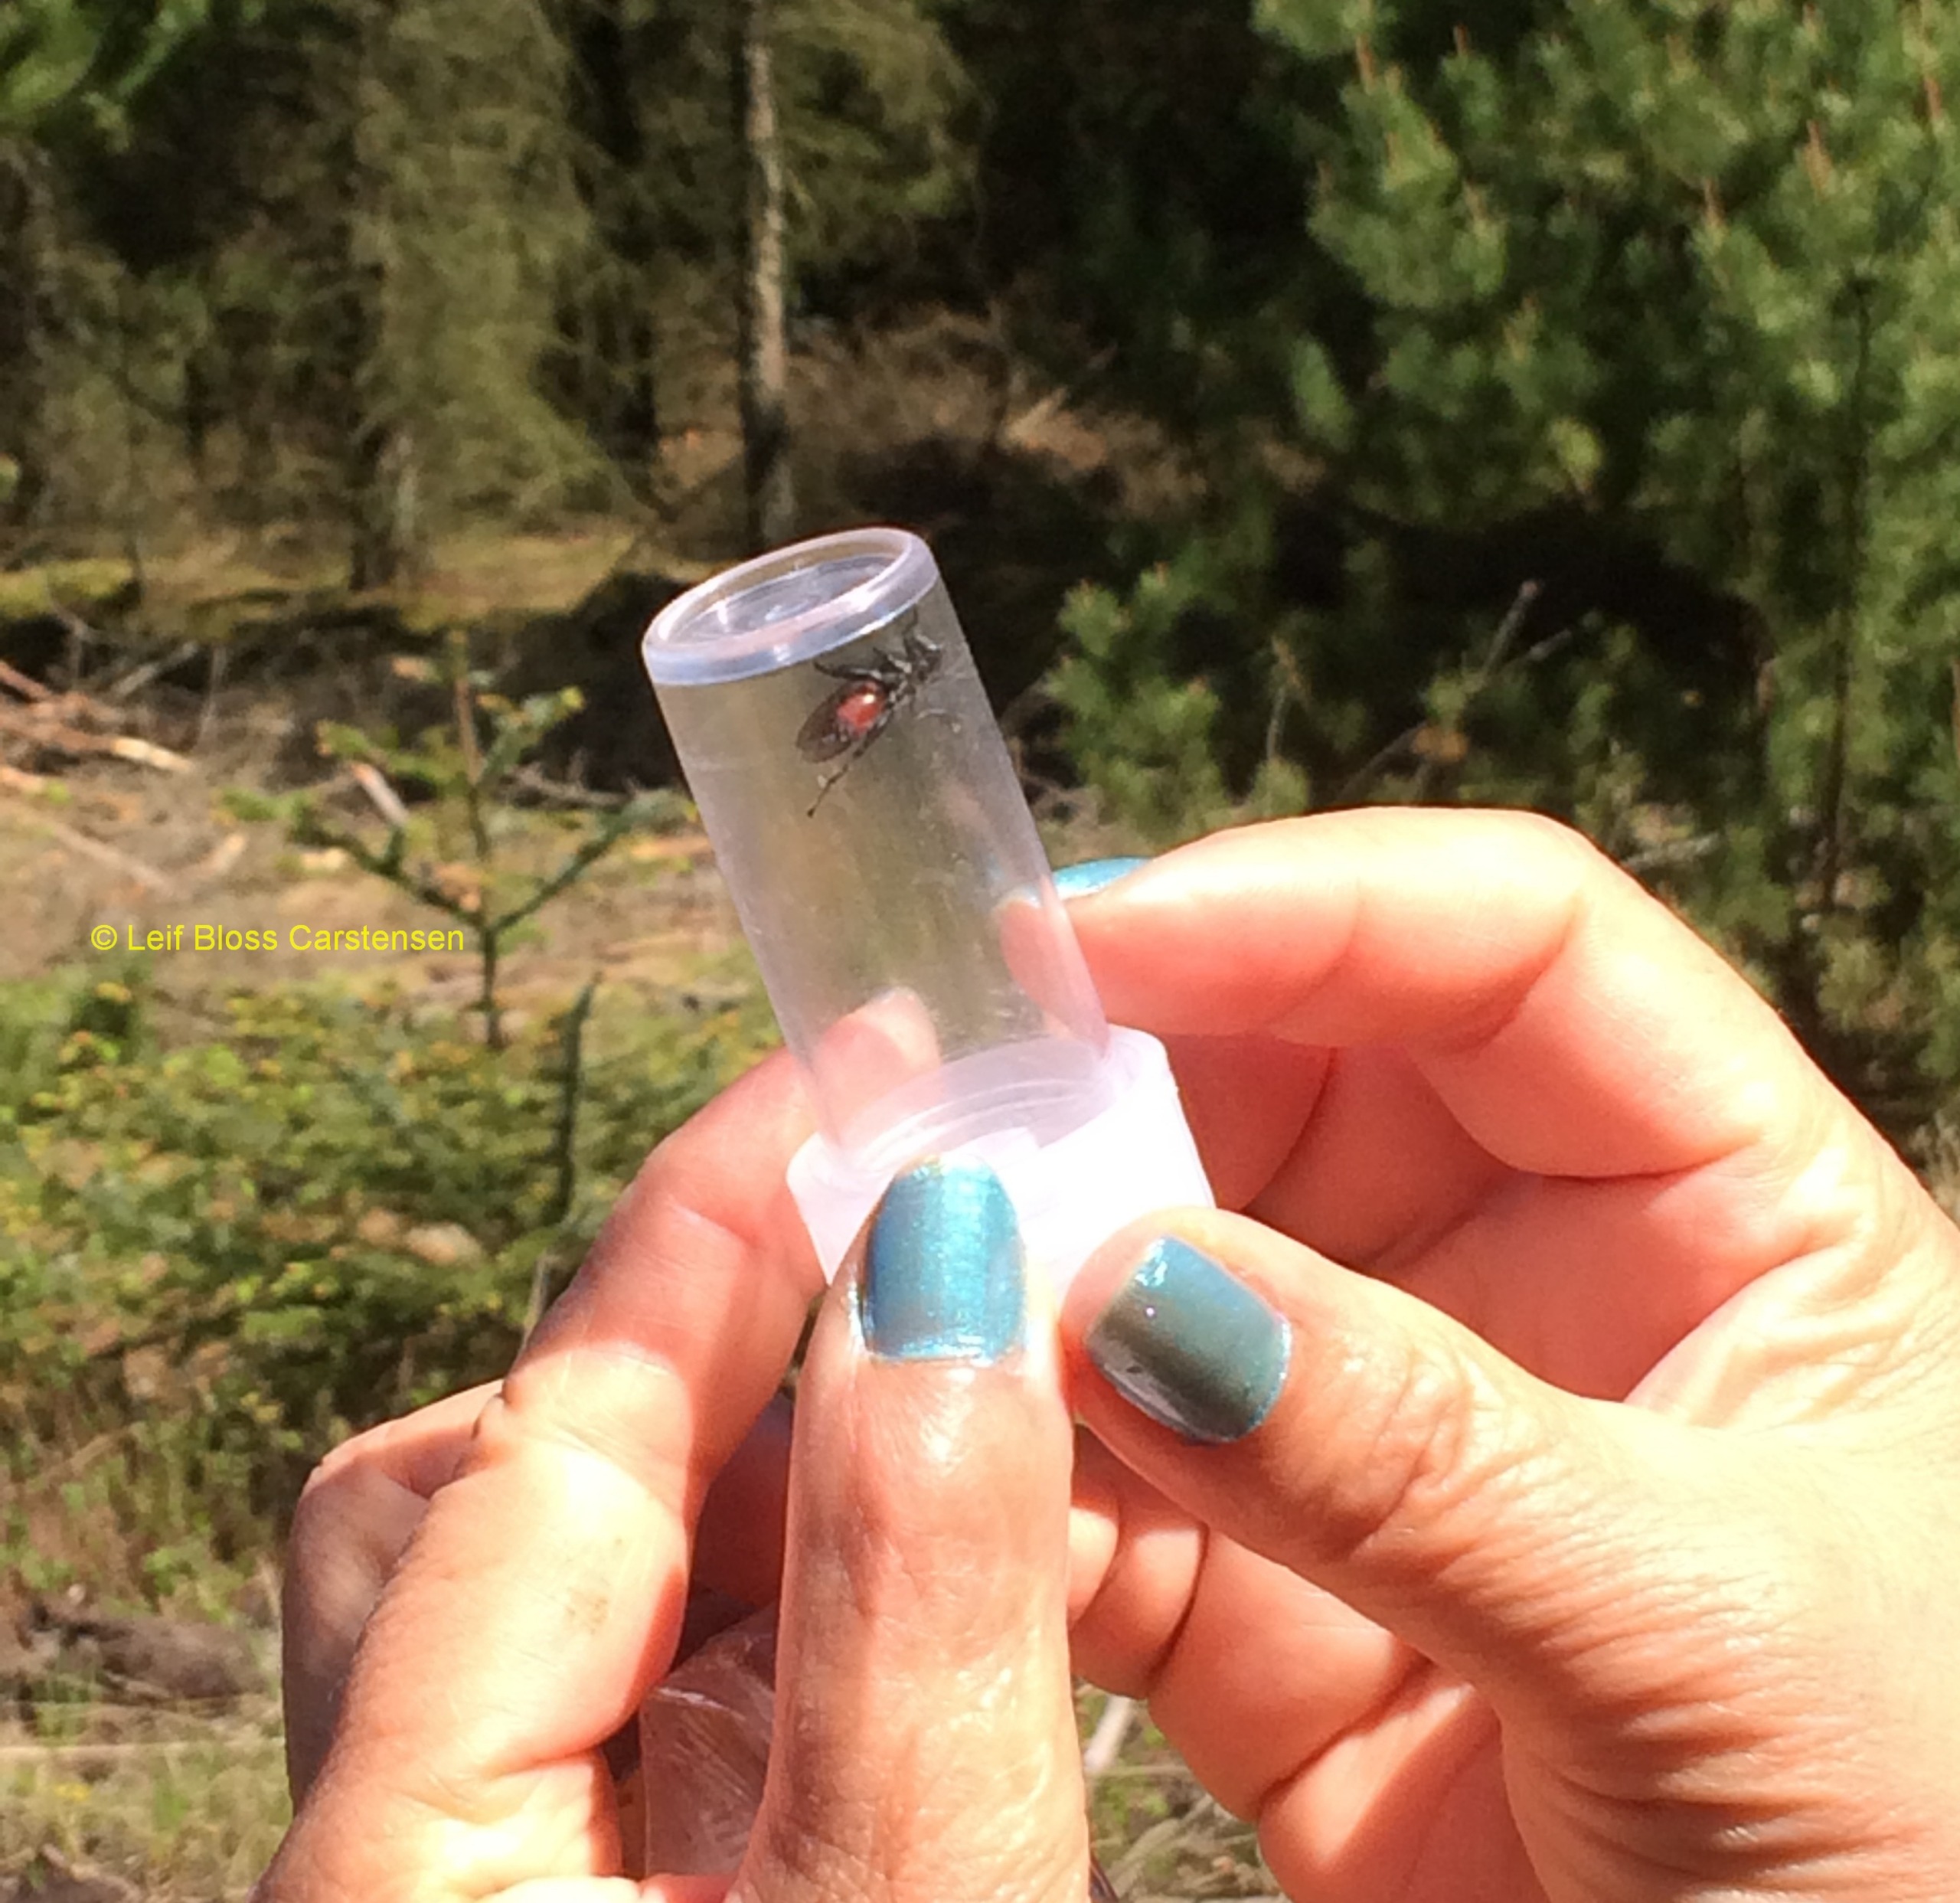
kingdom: Animalia
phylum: Arthropoda
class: Insecta
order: Diptera
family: Syrphidae
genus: Chalcosyrphus
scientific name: Chalcosyrphus piger
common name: Fyrre-træsmuldsvirreflue
